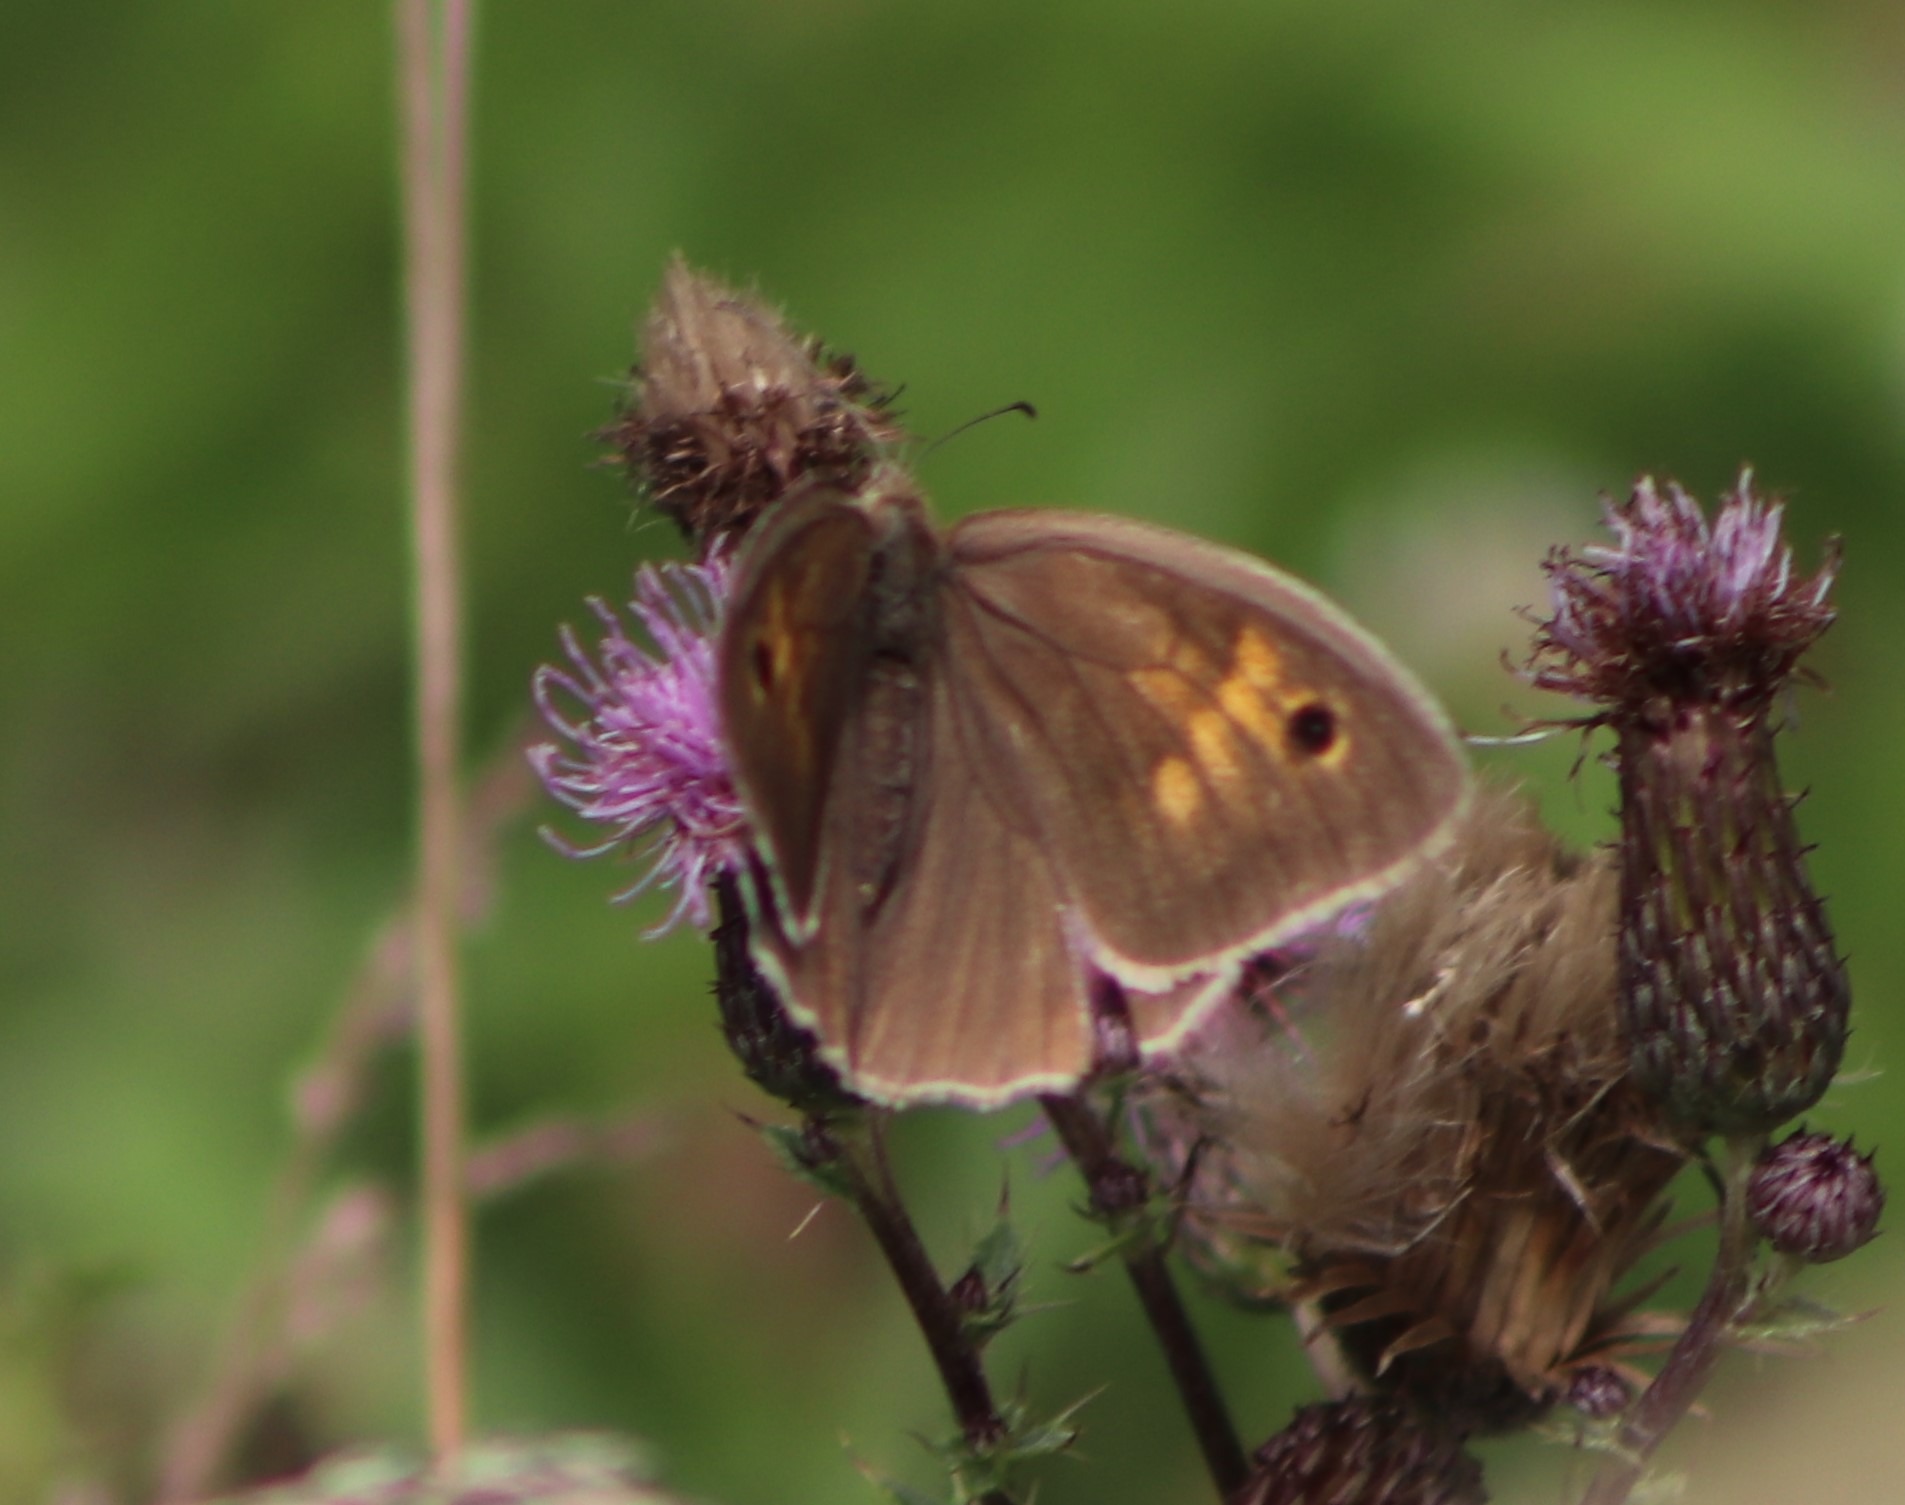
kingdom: Animalia
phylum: Arthropoda
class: Insecta
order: Lepidoptera
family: Nymphalidae
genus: Maniola
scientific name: Maniola jurtina
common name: Græsrandøje
